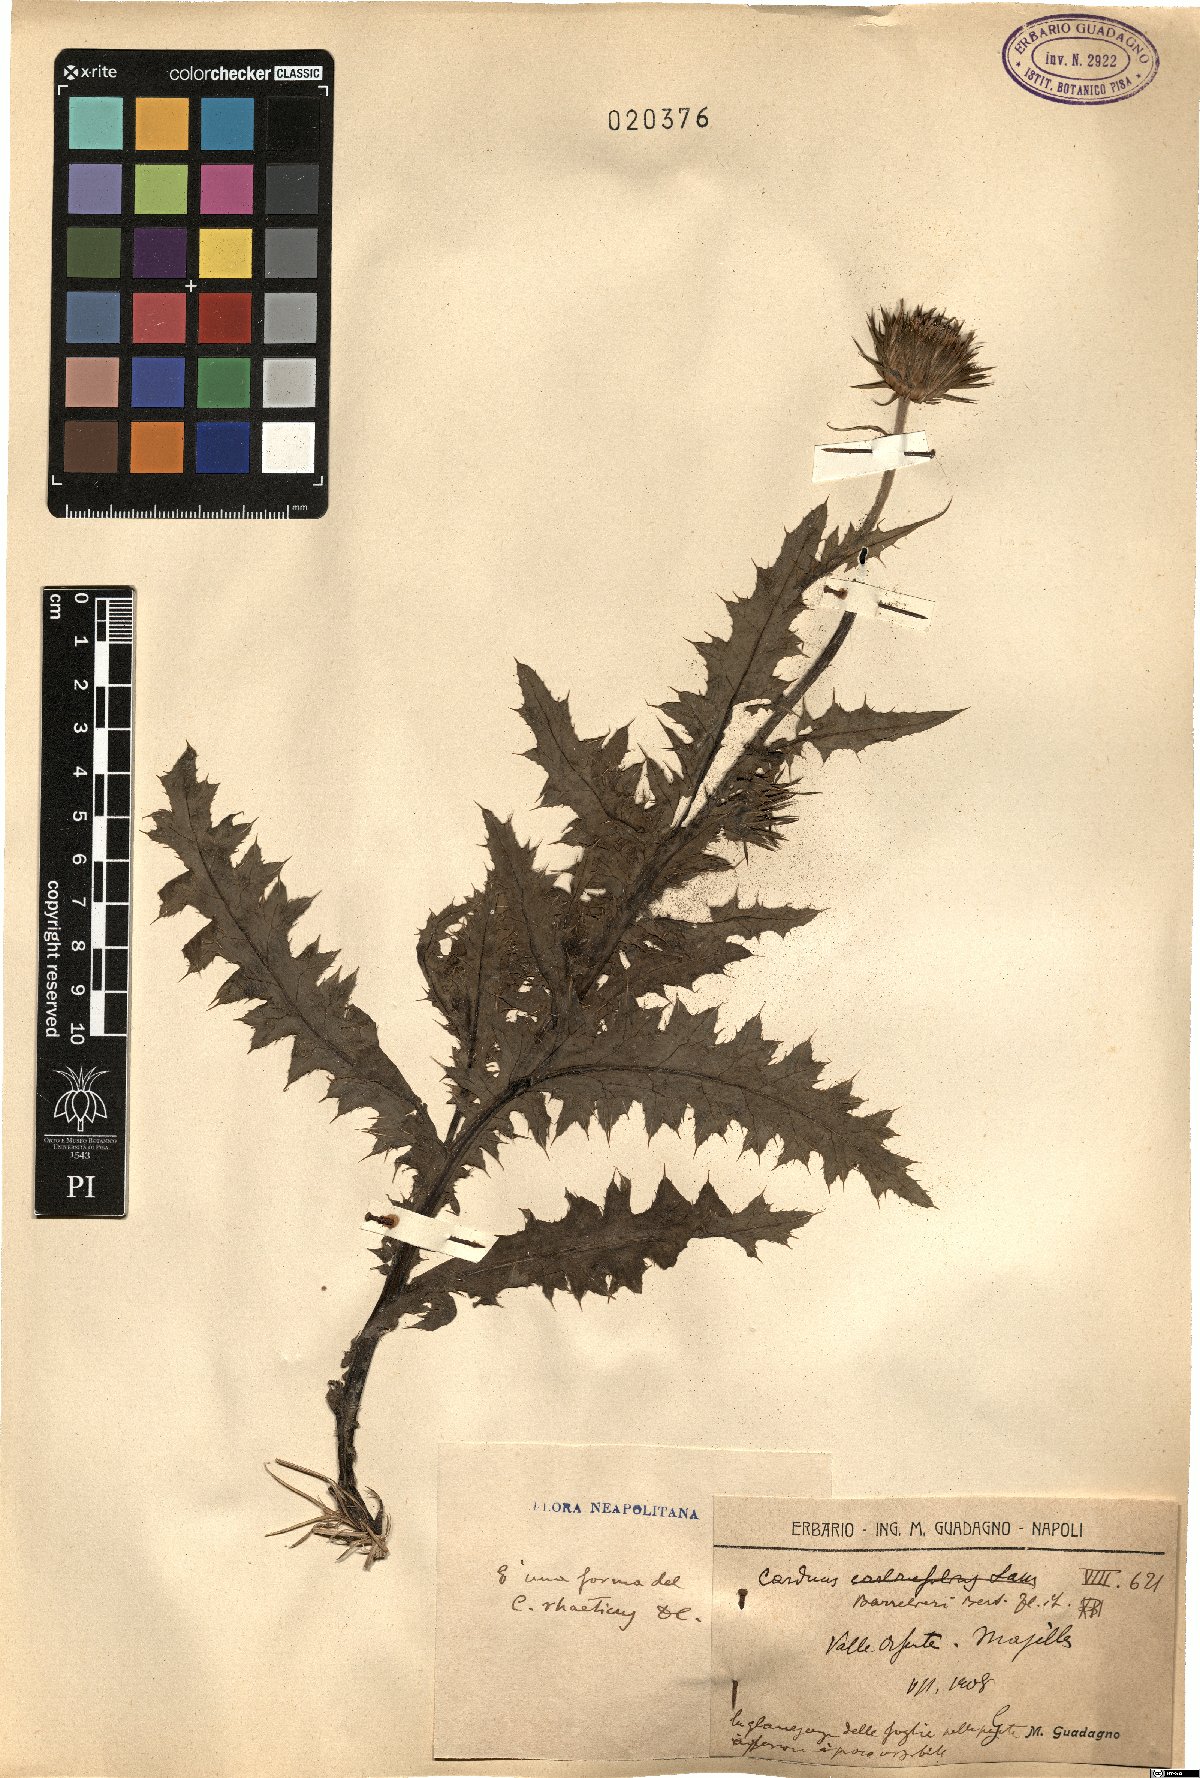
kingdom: Plantae
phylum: Tracheophyta
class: Magnoliopsida
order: Asterales
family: Asteraceae
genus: Carduus
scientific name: Carduus carlinifolius
